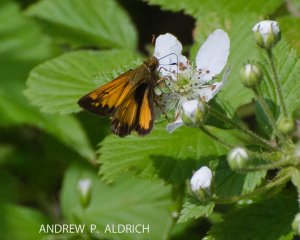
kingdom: Animalia
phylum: Arthropoda
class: Insecta
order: Lepidoptera
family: Hesperiidae
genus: Atrytone
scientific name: Atrytone delaware
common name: Delaware Skipper
